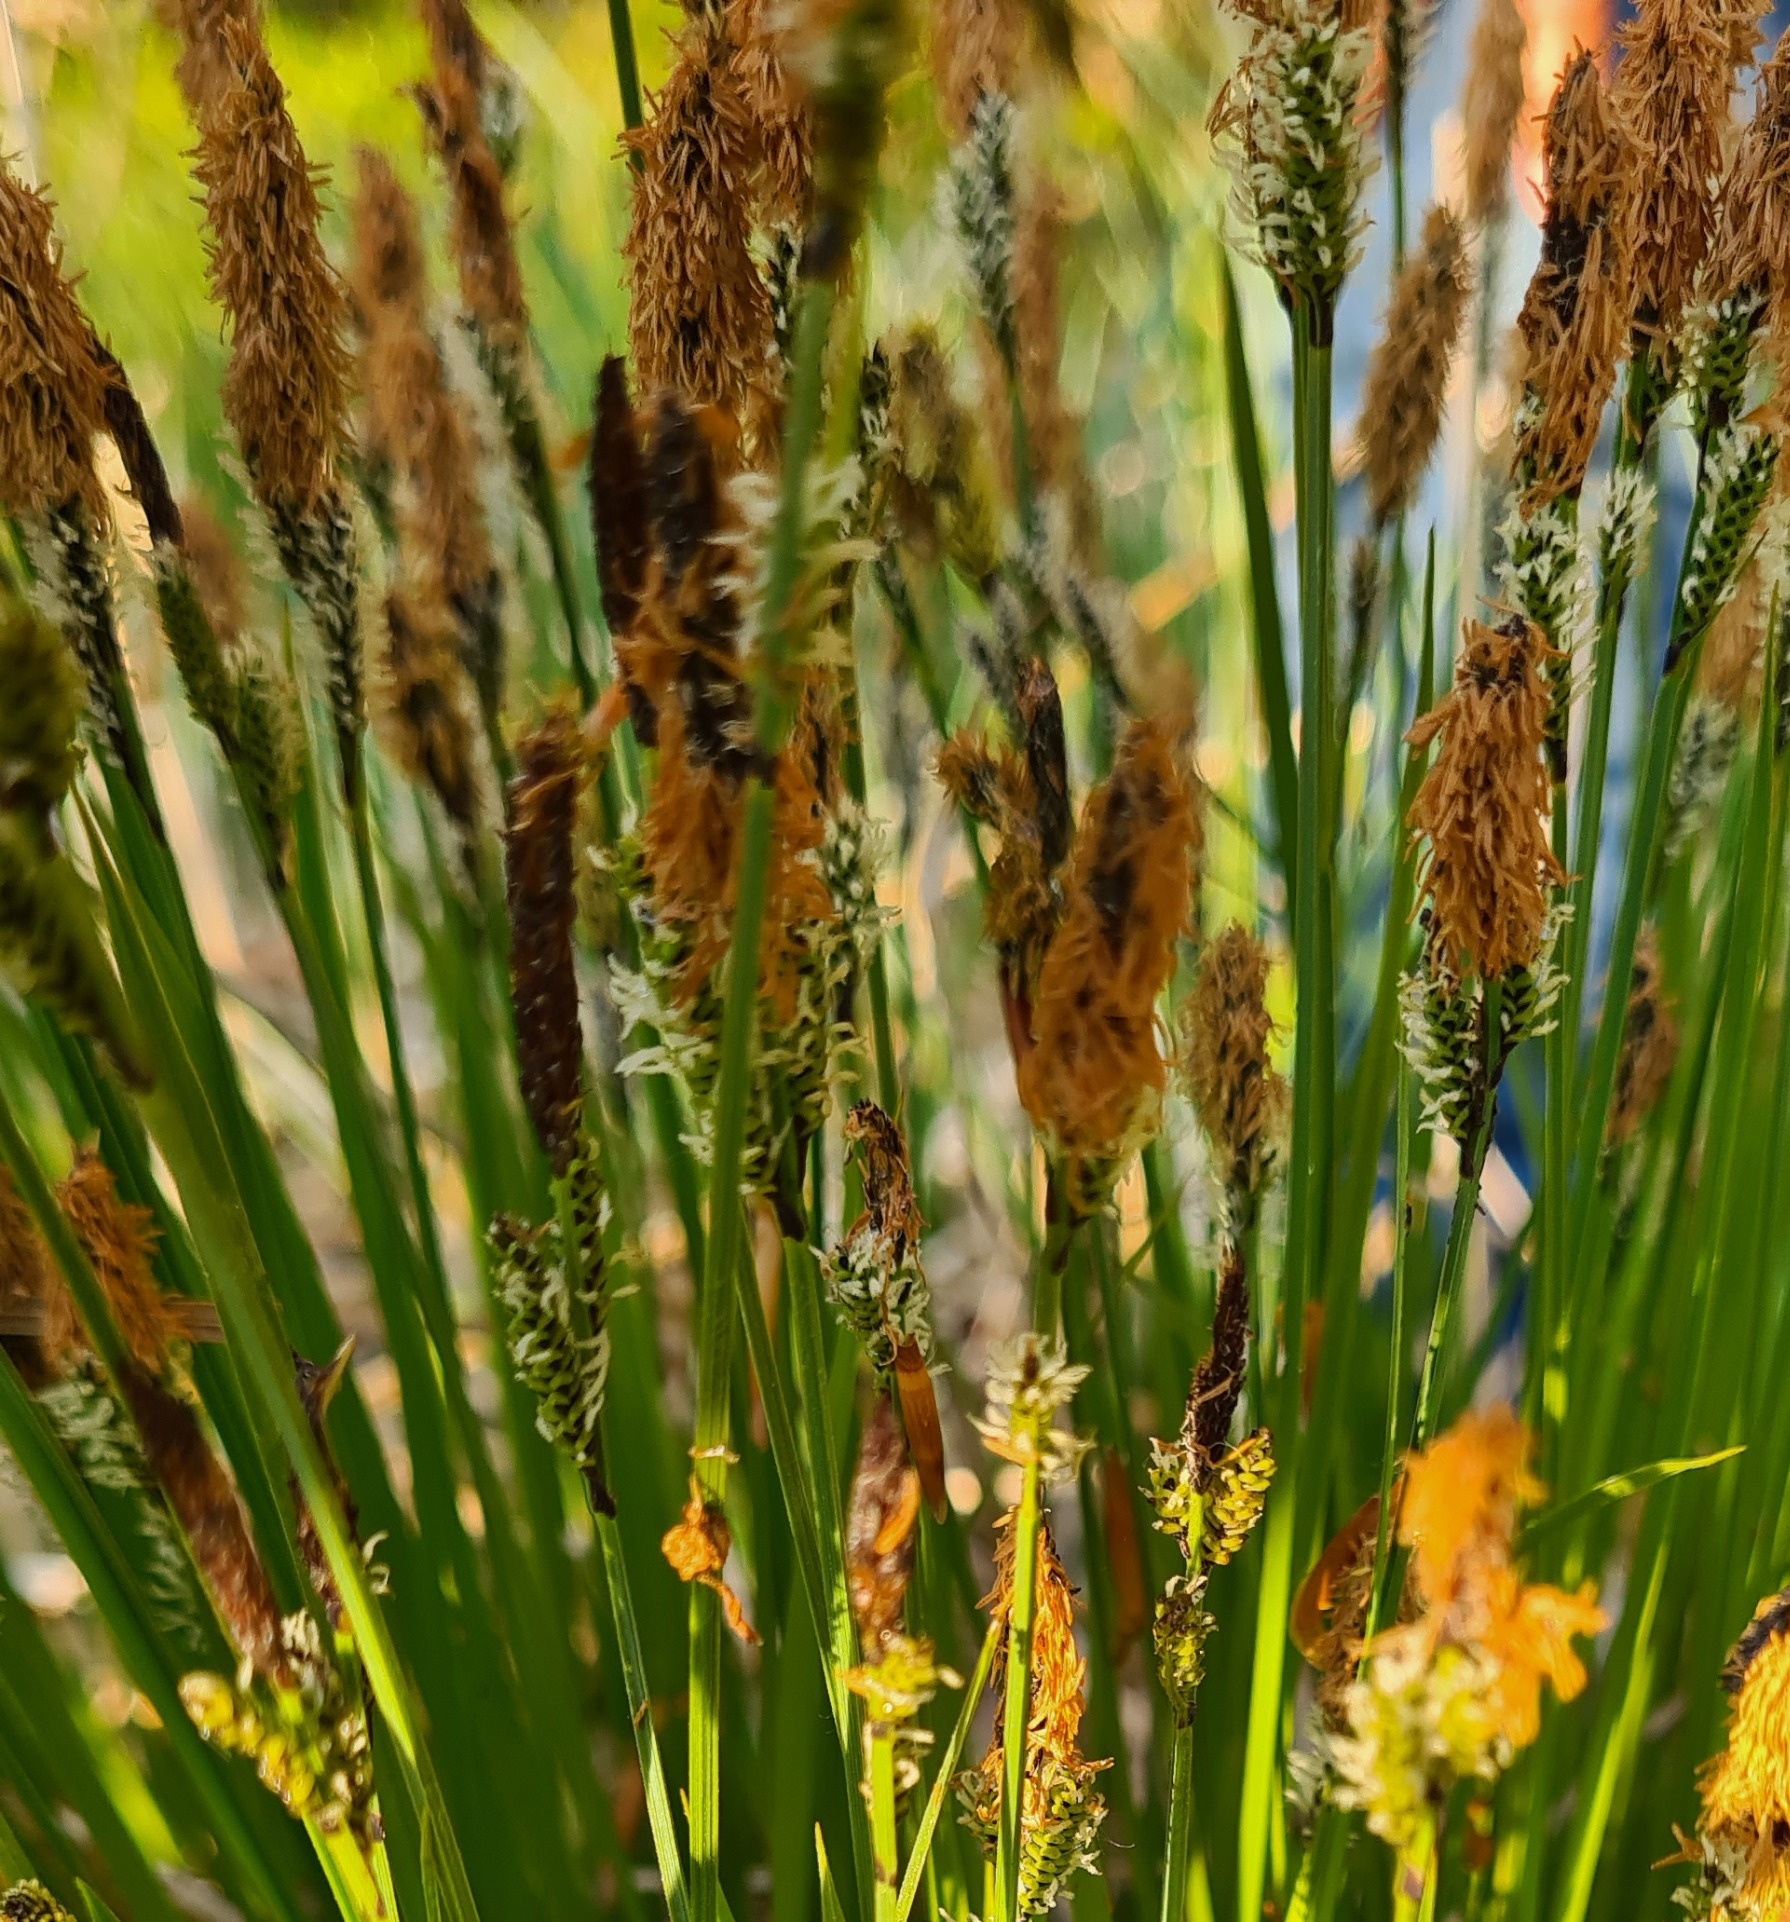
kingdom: Plantae
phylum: Tracheophyta
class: Liliopsida
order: Poales
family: Cyperaceae
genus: Carex
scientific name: Carex cespitosa
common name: Tue-star
